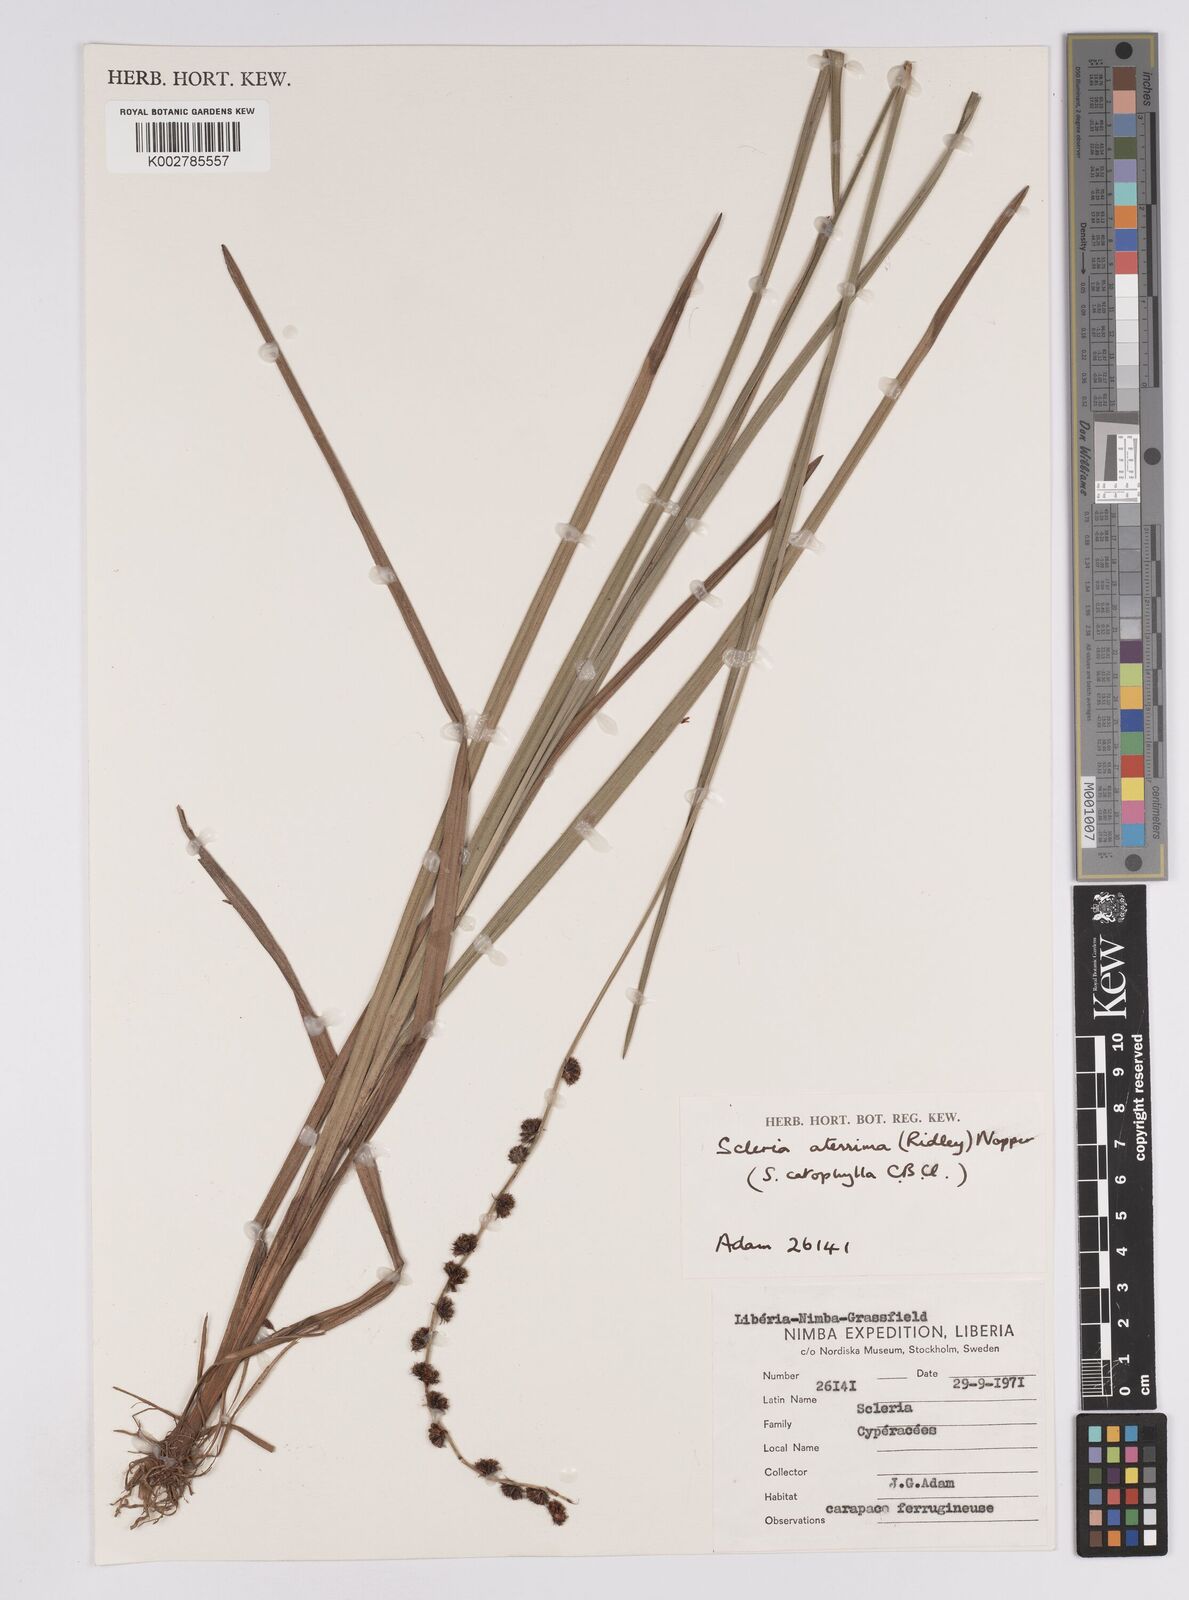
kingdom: Plantae
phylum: Tracheophyta
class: Liliopsida
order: Poales
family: Cyperaceae
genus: Scleria
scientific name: Scleria catophylla
